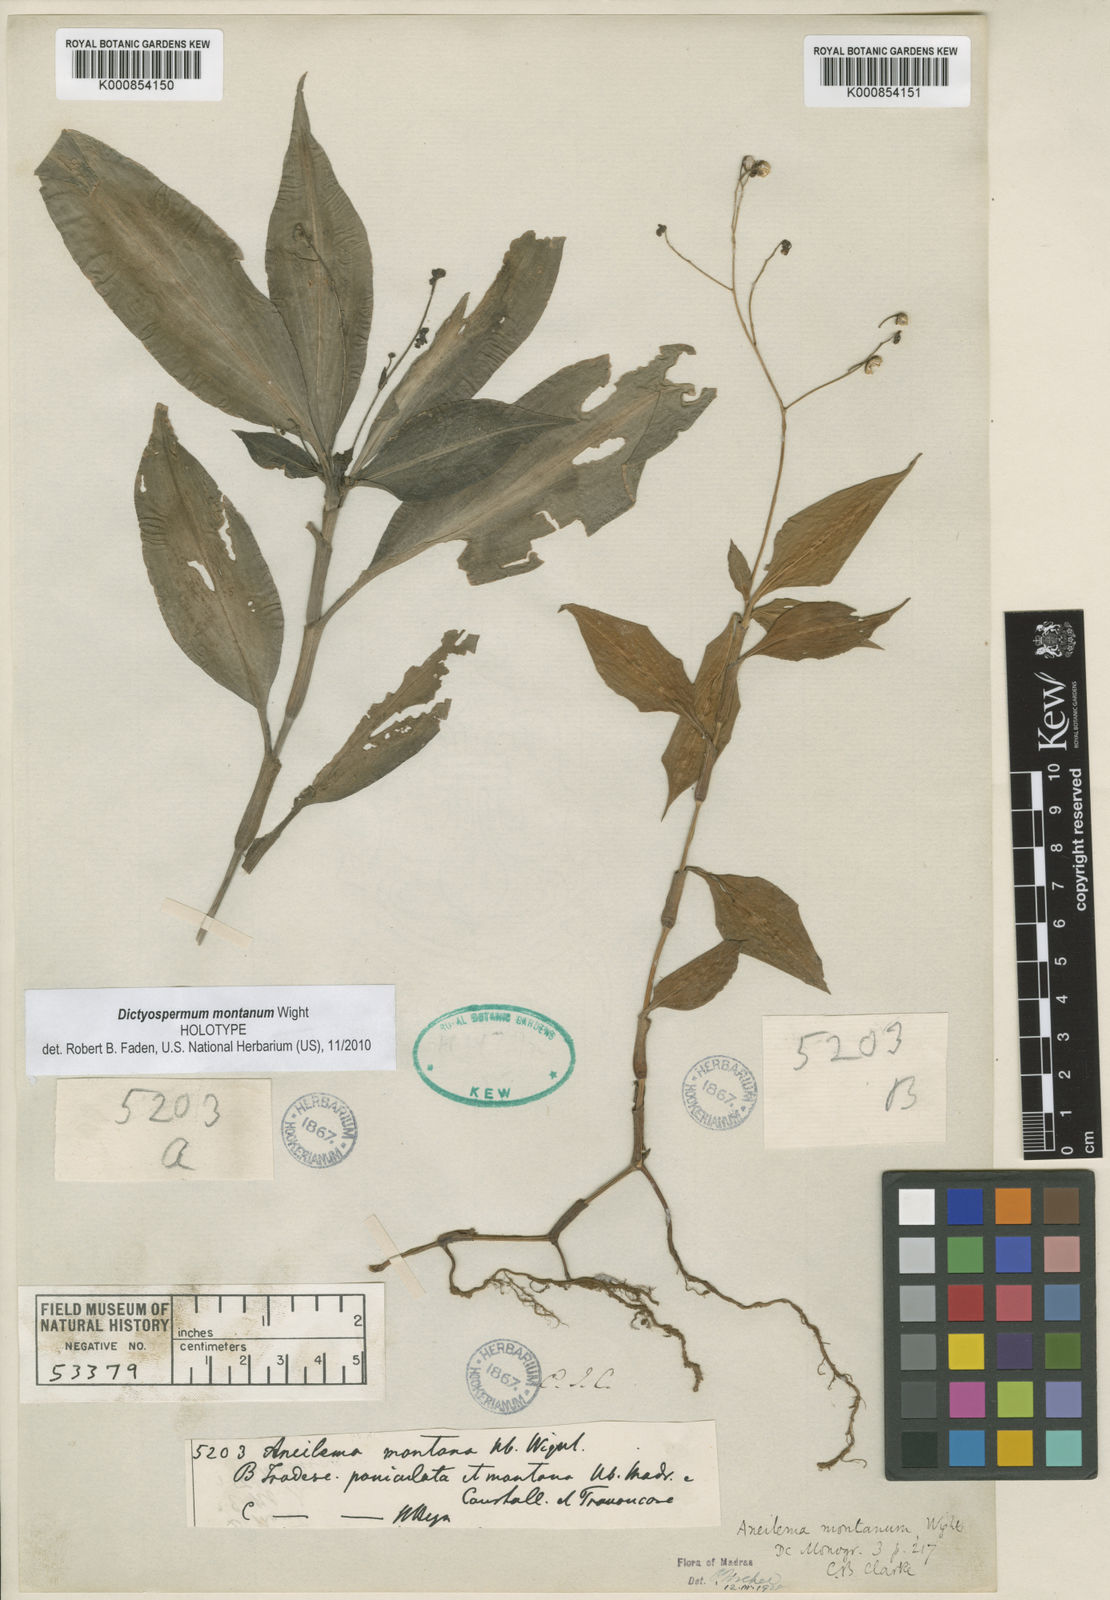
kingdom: Plantae
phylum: Tracheophyta
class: Liliopsida
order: Commelinales
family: Commelinaceae
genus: Dictyospermum
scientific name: Dictyospermum montanum
